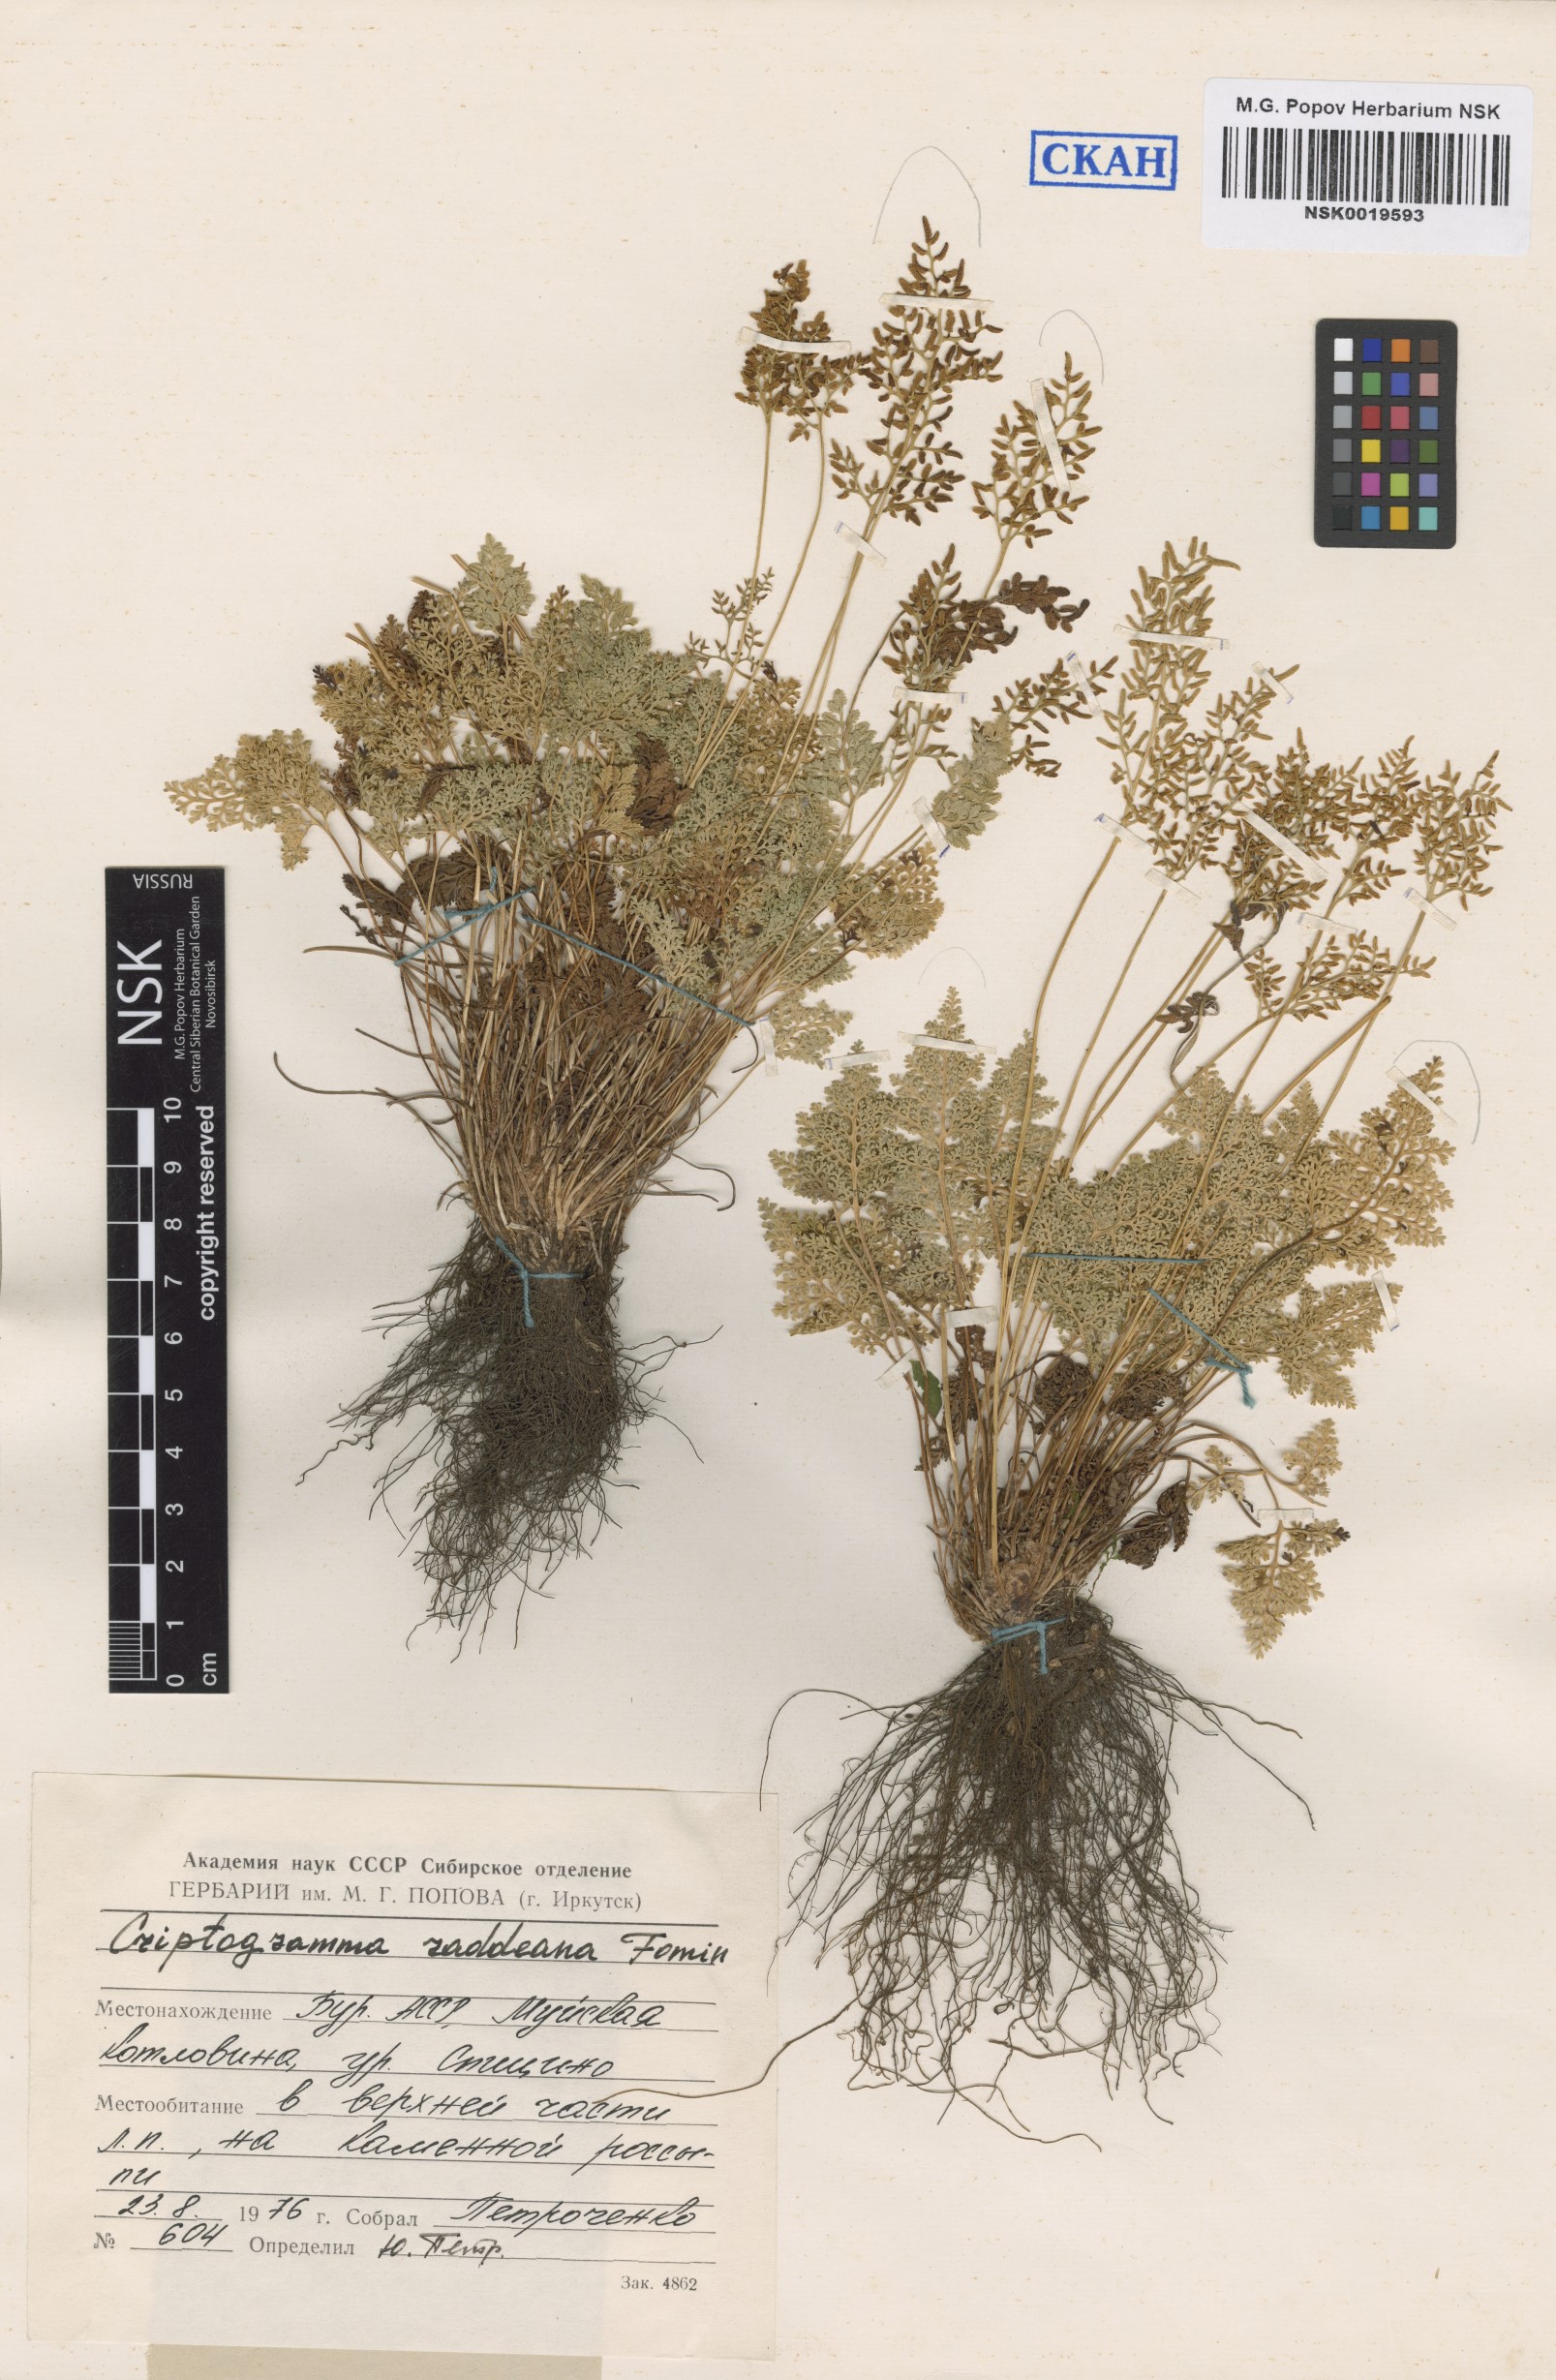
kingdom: Plantae
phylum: Tracheophyta
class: Polypodiopsida
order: Polypodiales
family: Pteridaceae
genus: Cryptogramma
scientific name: Cryptogramma brunoniana
